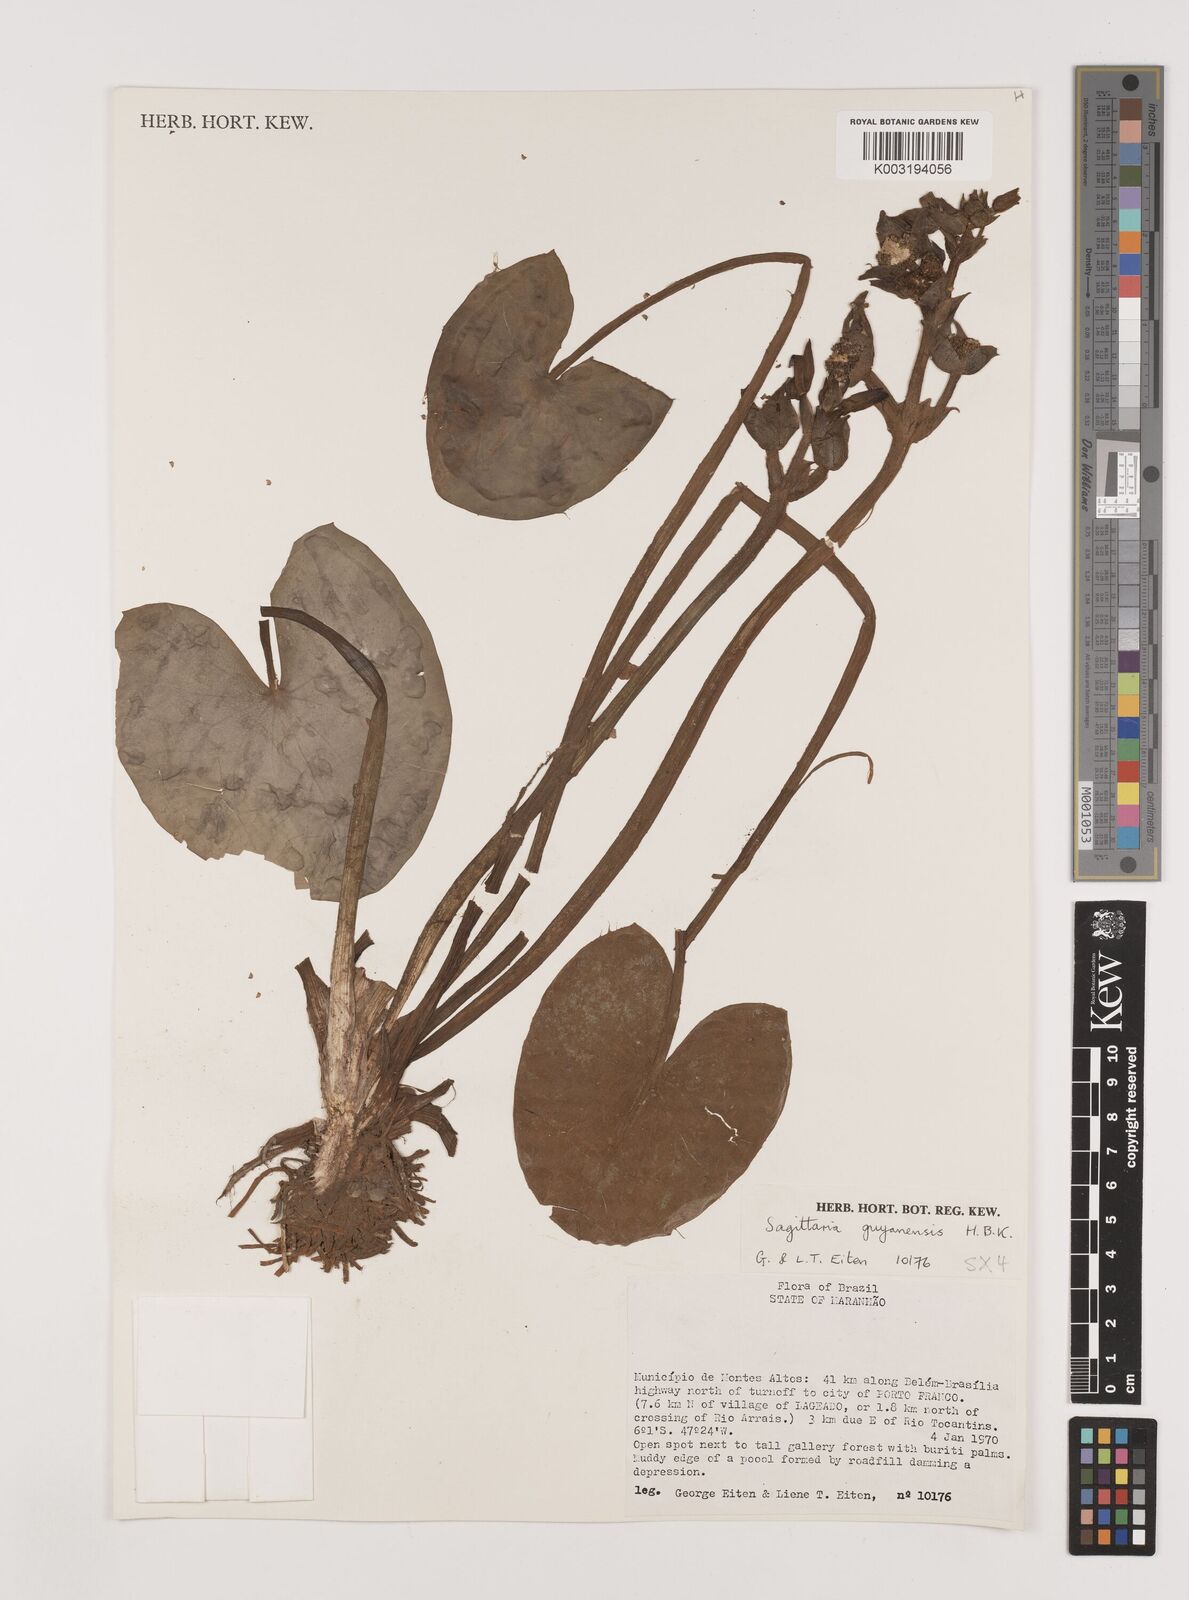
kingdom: Plantae
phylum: Tracheophyta
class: Liliopsida
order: Alismatales
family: Alismataceae
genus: Sagittaria
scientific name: Sagittaria guayanensis
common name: Guyanese arrowhead
